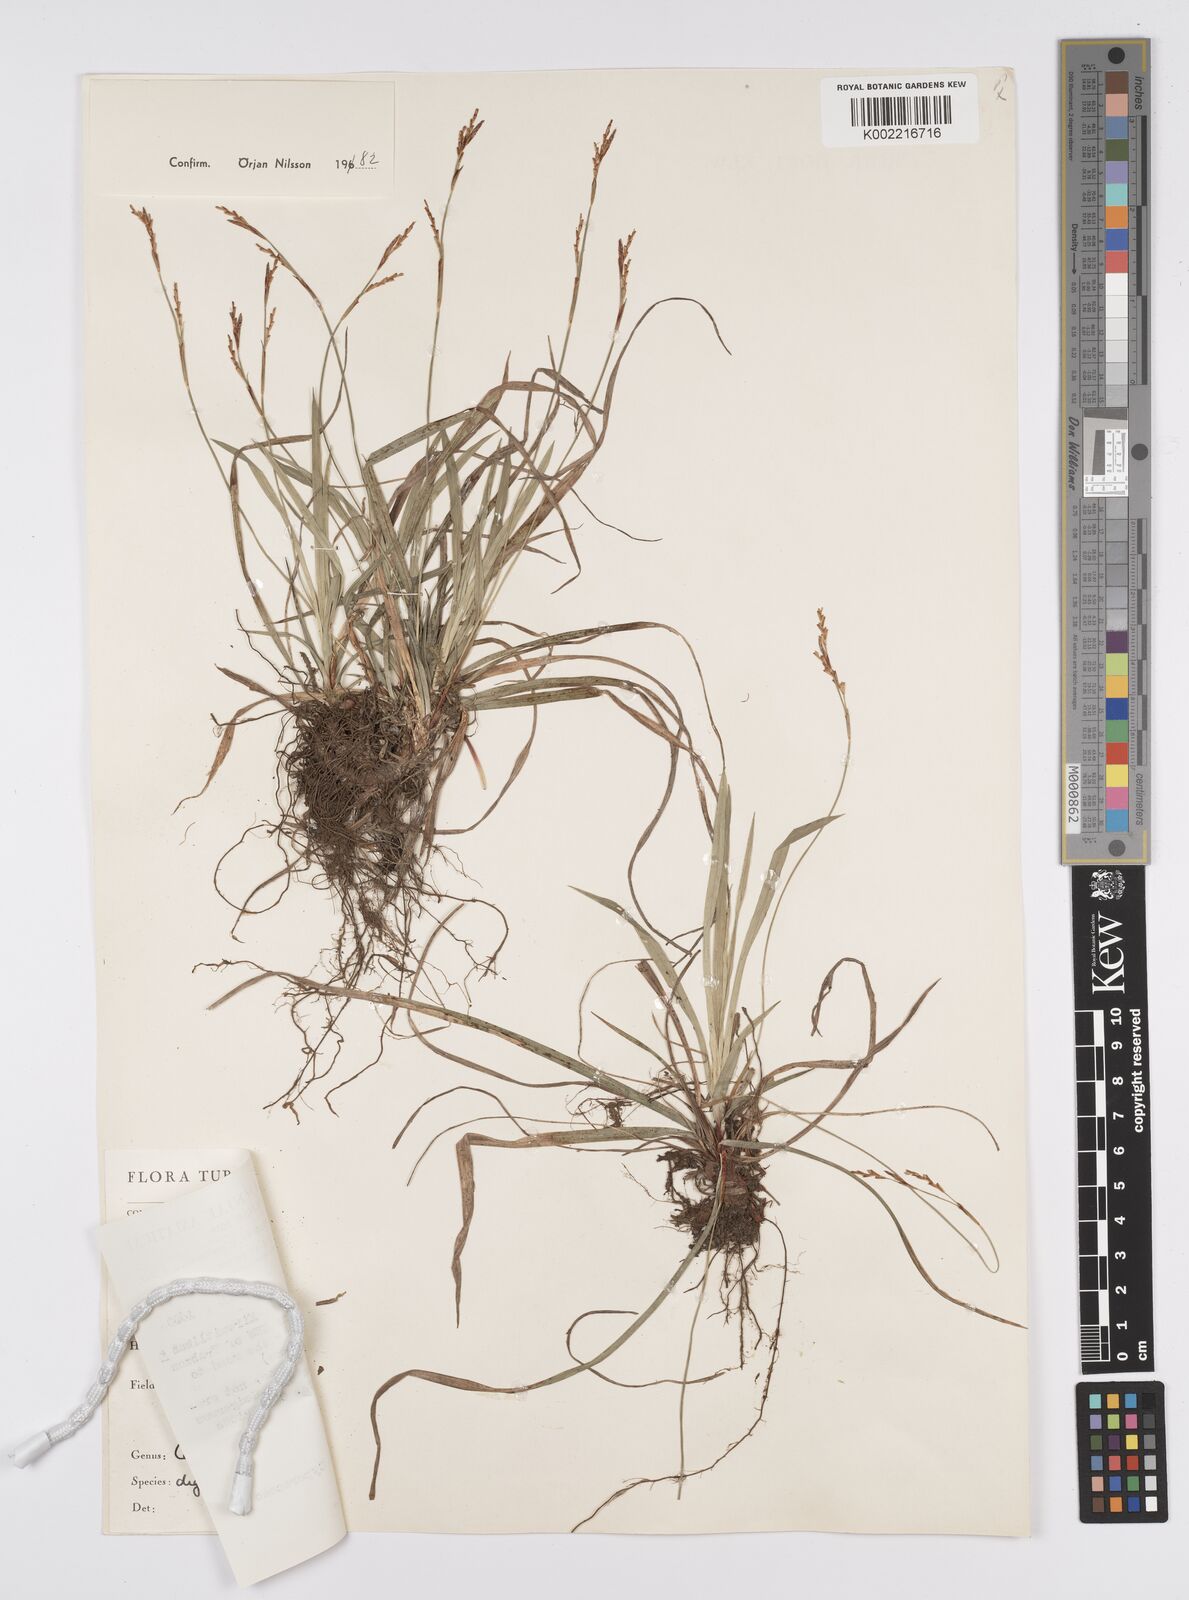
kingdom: Plantae
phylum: Tracheophyta
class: Liliopsida
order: Poales
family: Cyperaceae
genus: Carex
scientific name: Carex digitata
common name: Fingered sedge
